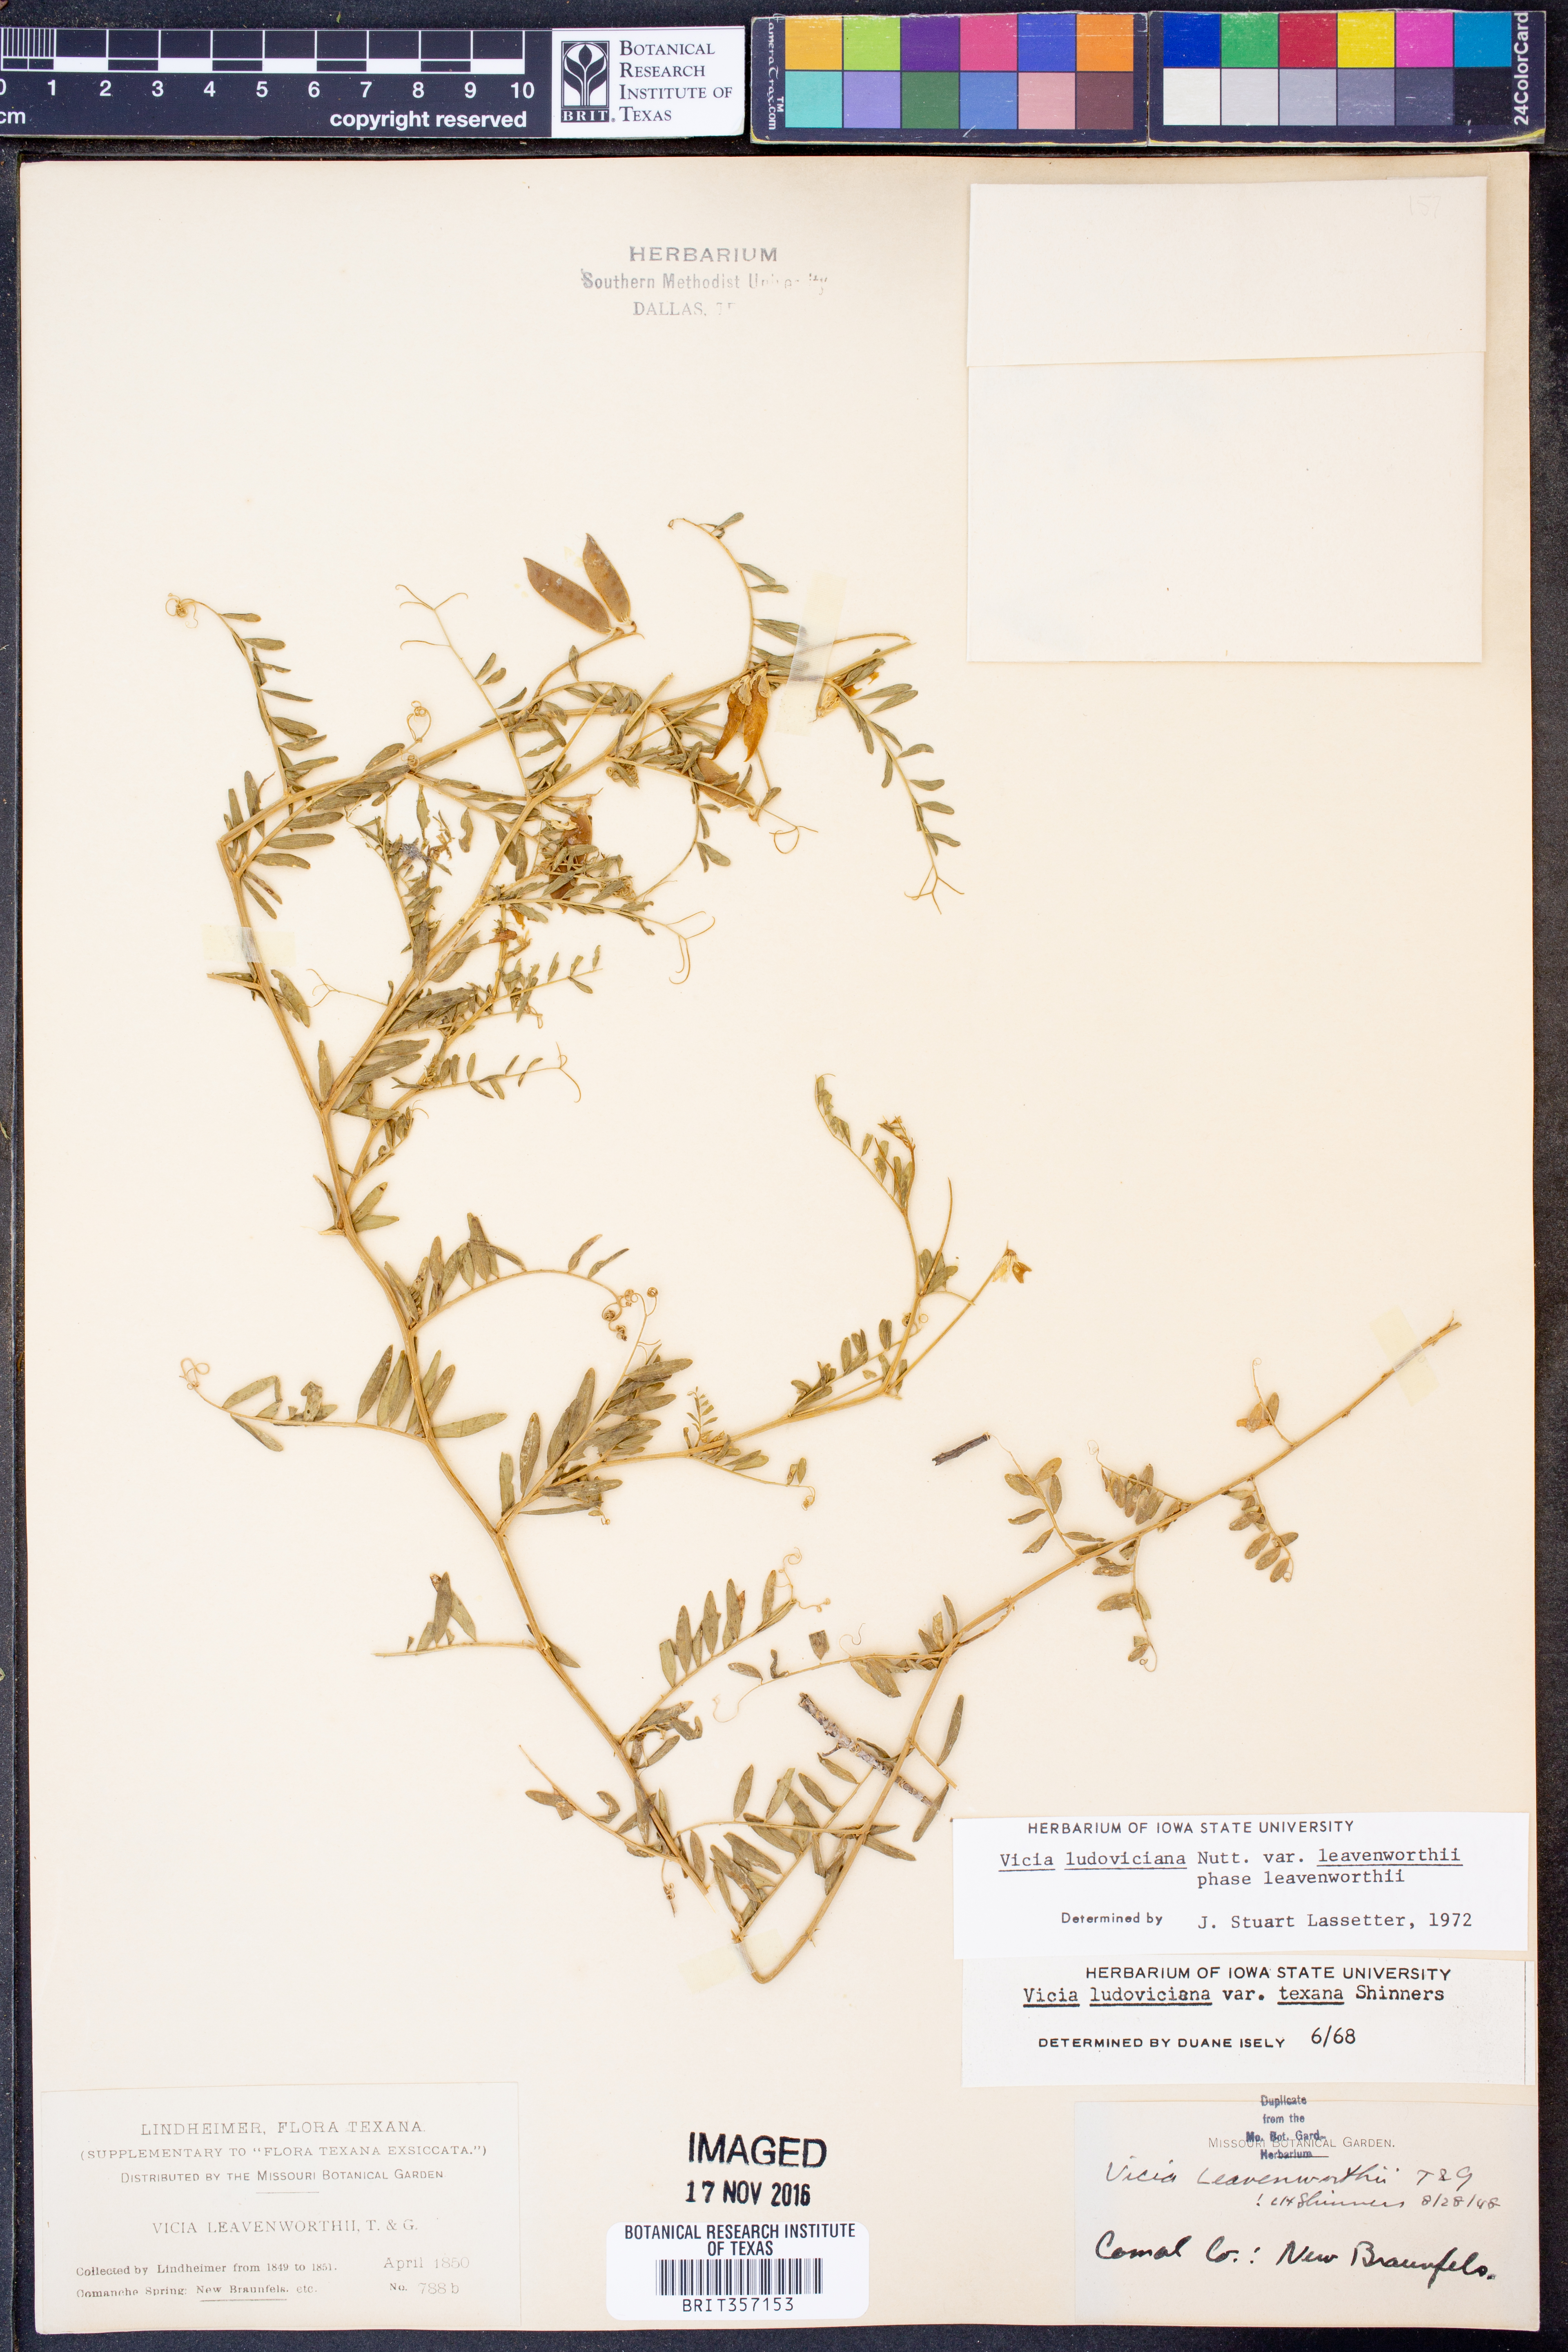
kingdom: Plantae
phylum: Tracheophyta
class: Magnoliopsida
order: Fabales
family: Fabaceae
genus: Vicia
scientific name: Vicia ludoviciana
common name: Louisiana vetch
